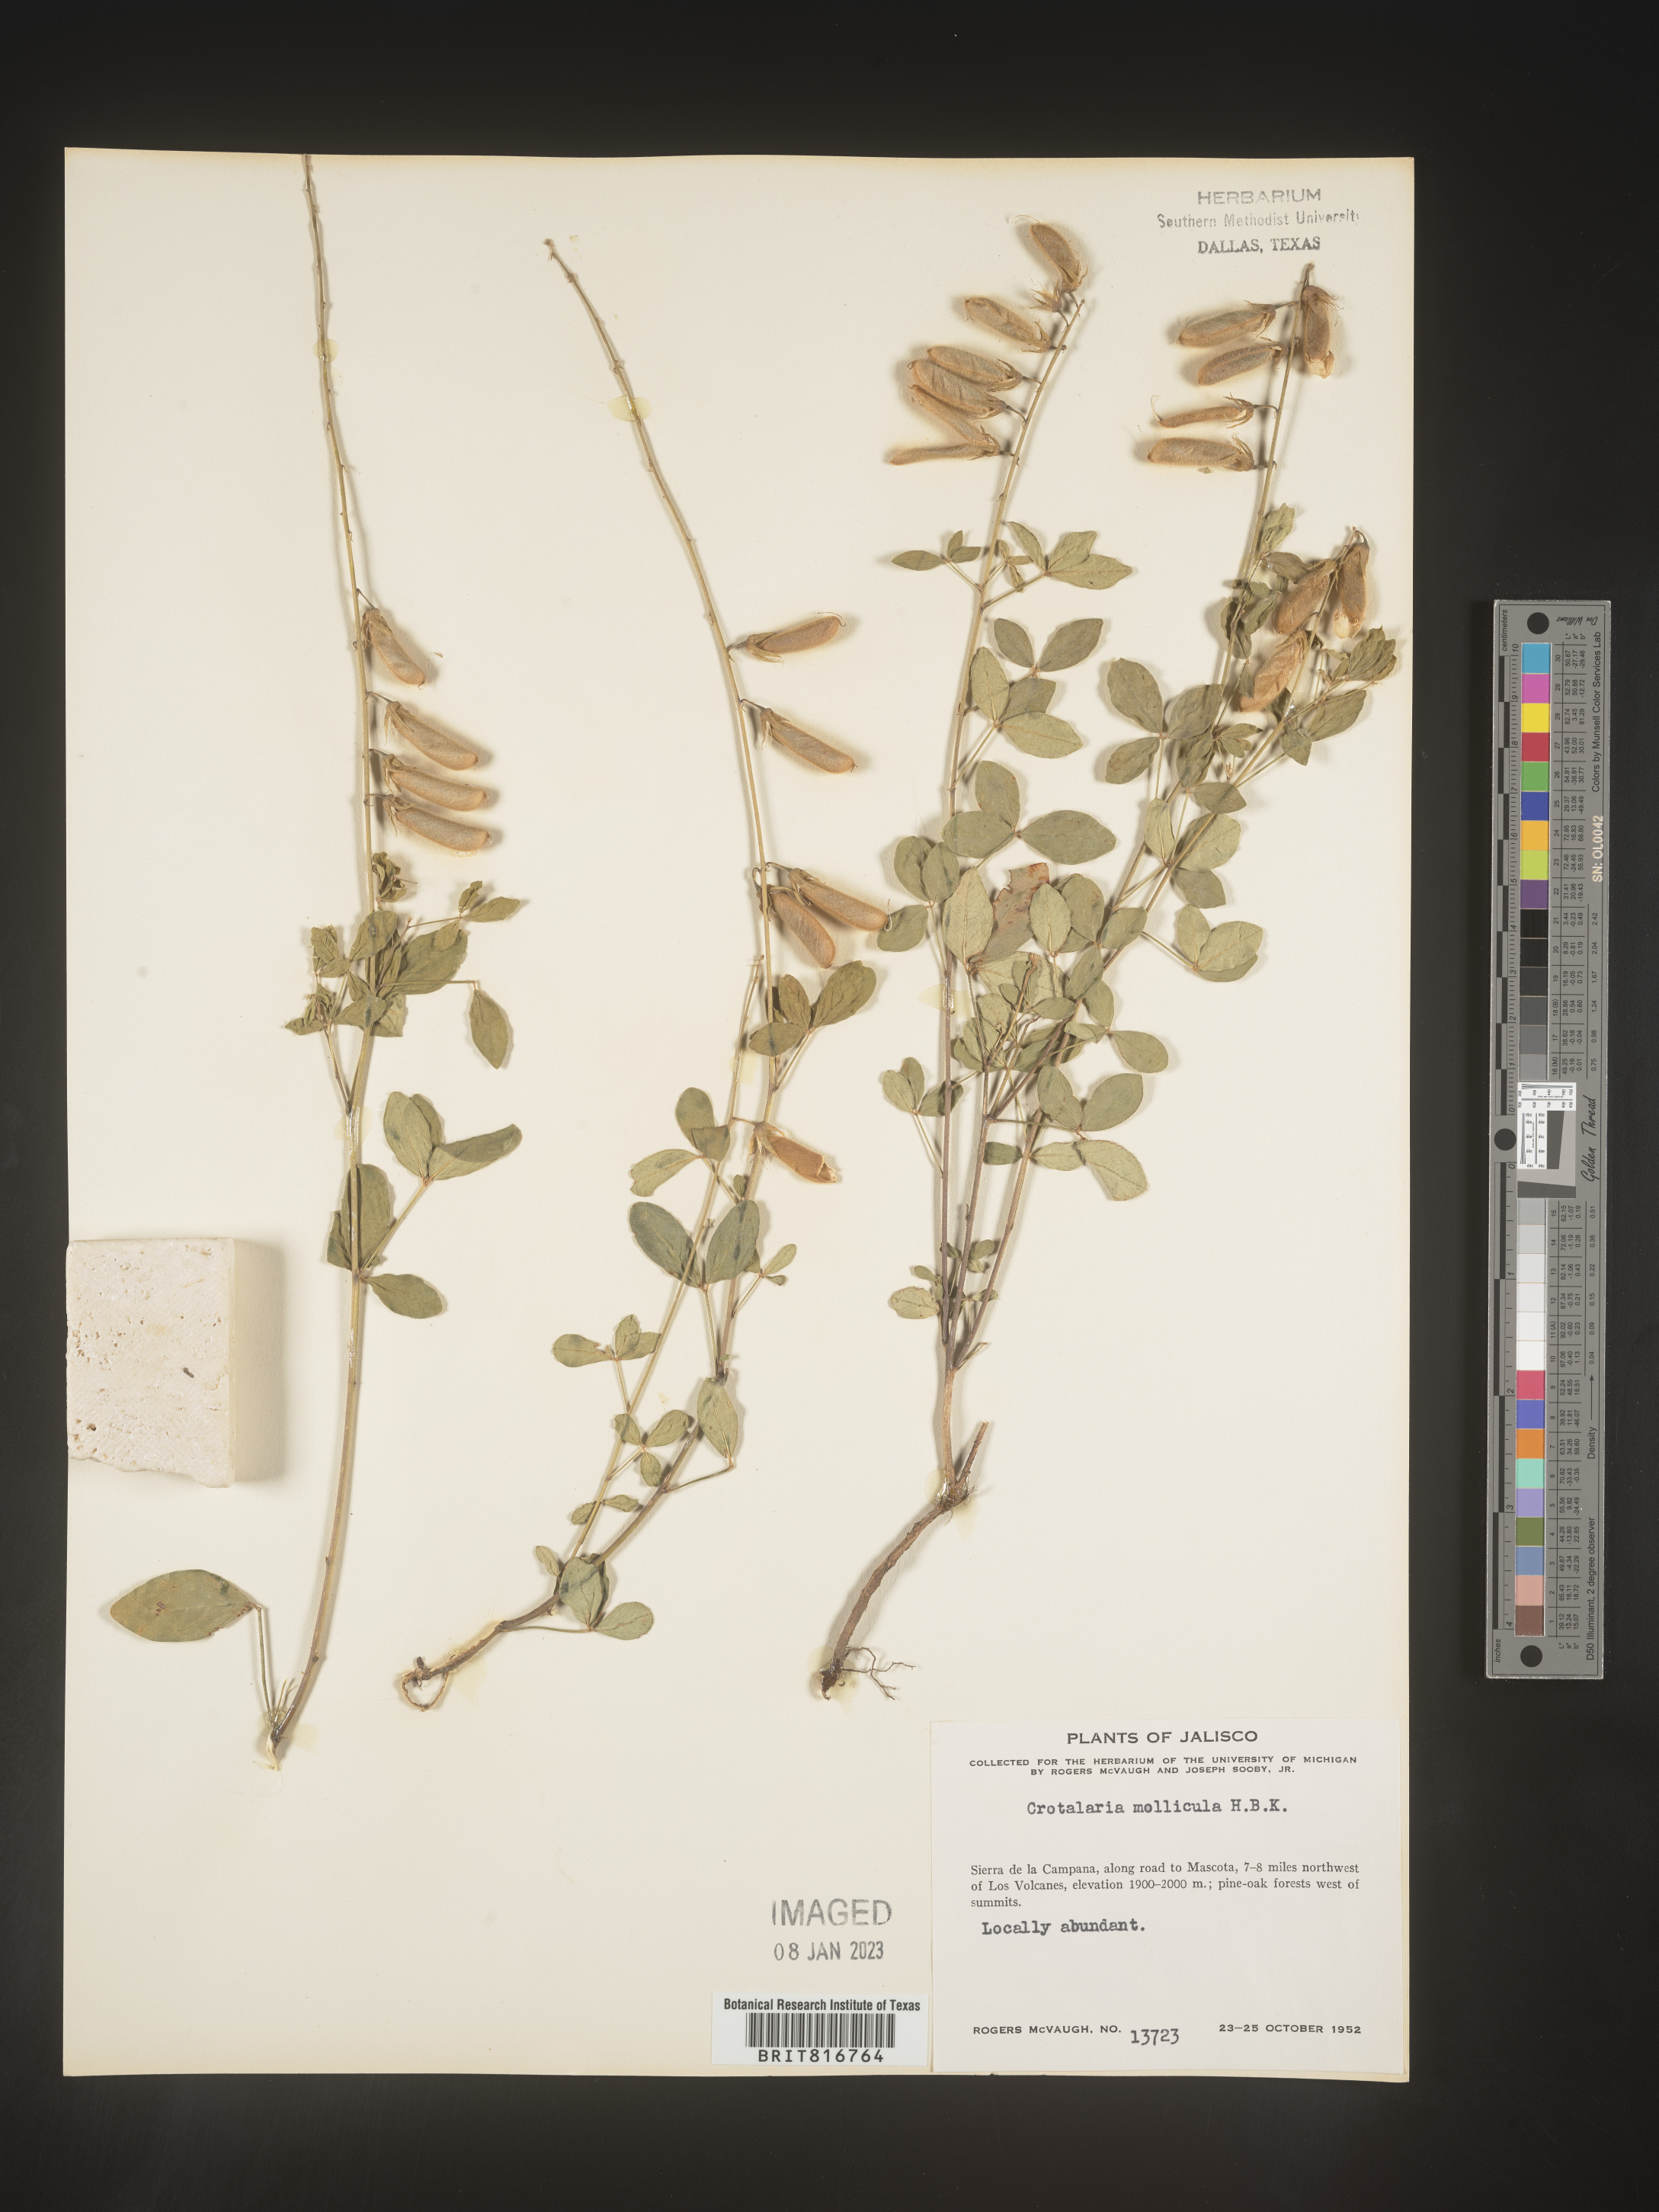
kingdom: Plantae
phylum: Tracheophyta
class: Magnoliopsida
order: Fabales
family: Fabaceae
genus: Crotalaria
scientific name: Crotalaria
